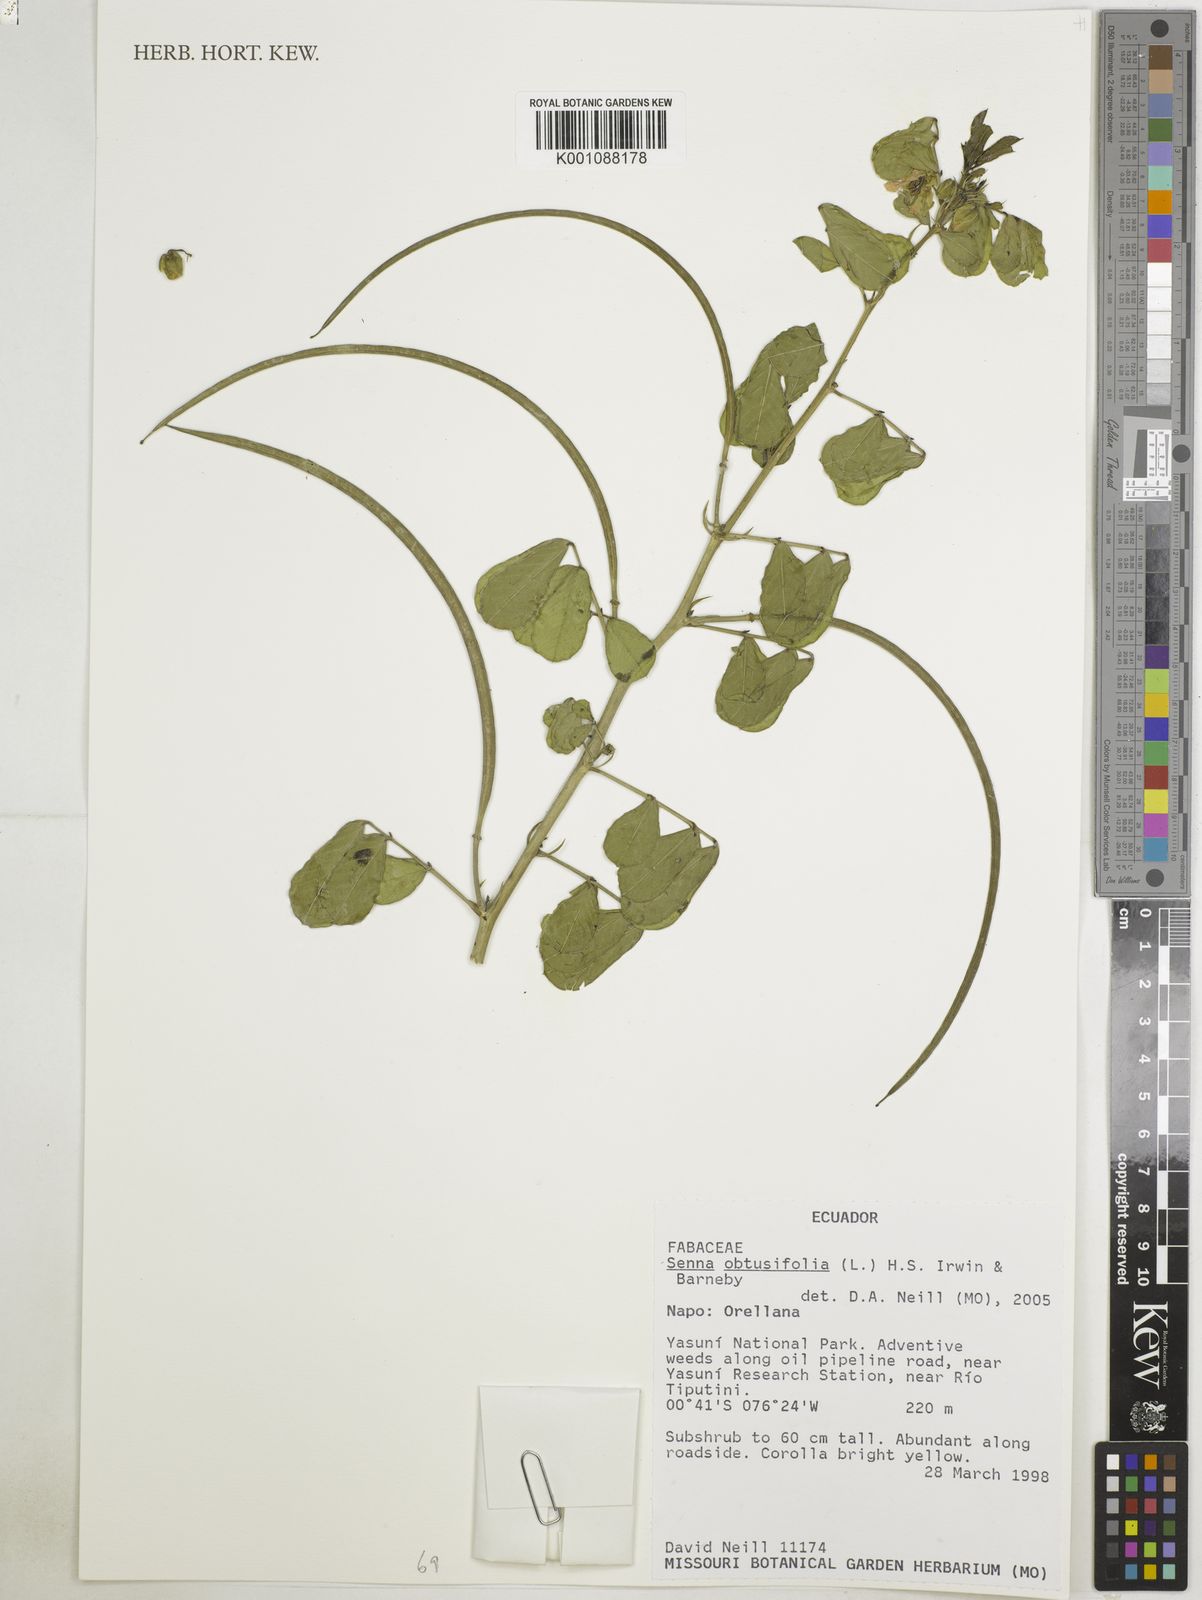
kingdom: Plantae
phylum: Tracheophyta
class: Magnoliopsida
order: Fabales
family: Fabaceae
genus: Senna
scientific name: Senna obtusifolia
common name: Java-bean
